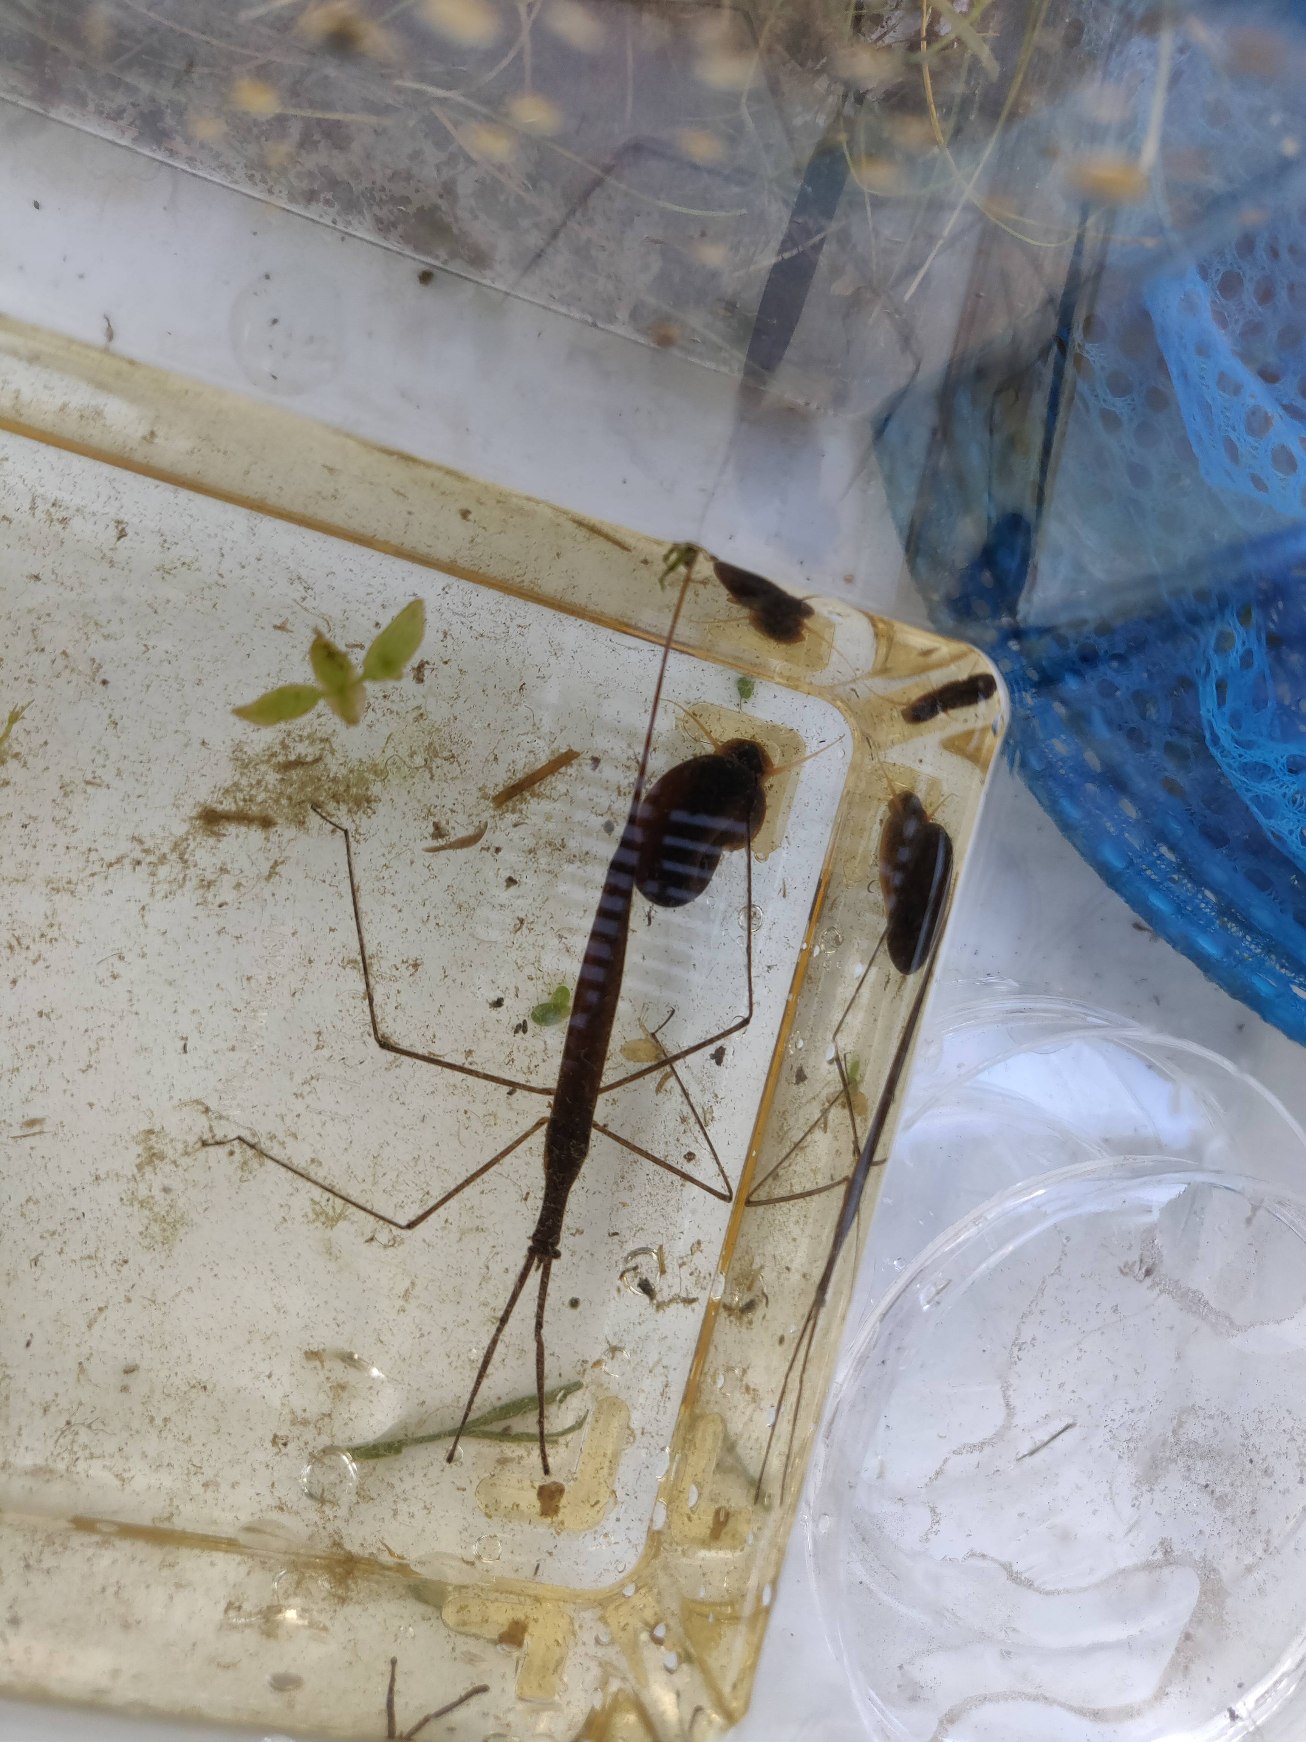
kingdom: Animalia
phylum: Arthropoda
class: Insecta
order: Hemiptera
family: Nepidae
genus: Ranatra
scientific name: Ranatra linearis
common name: Stavtæge
